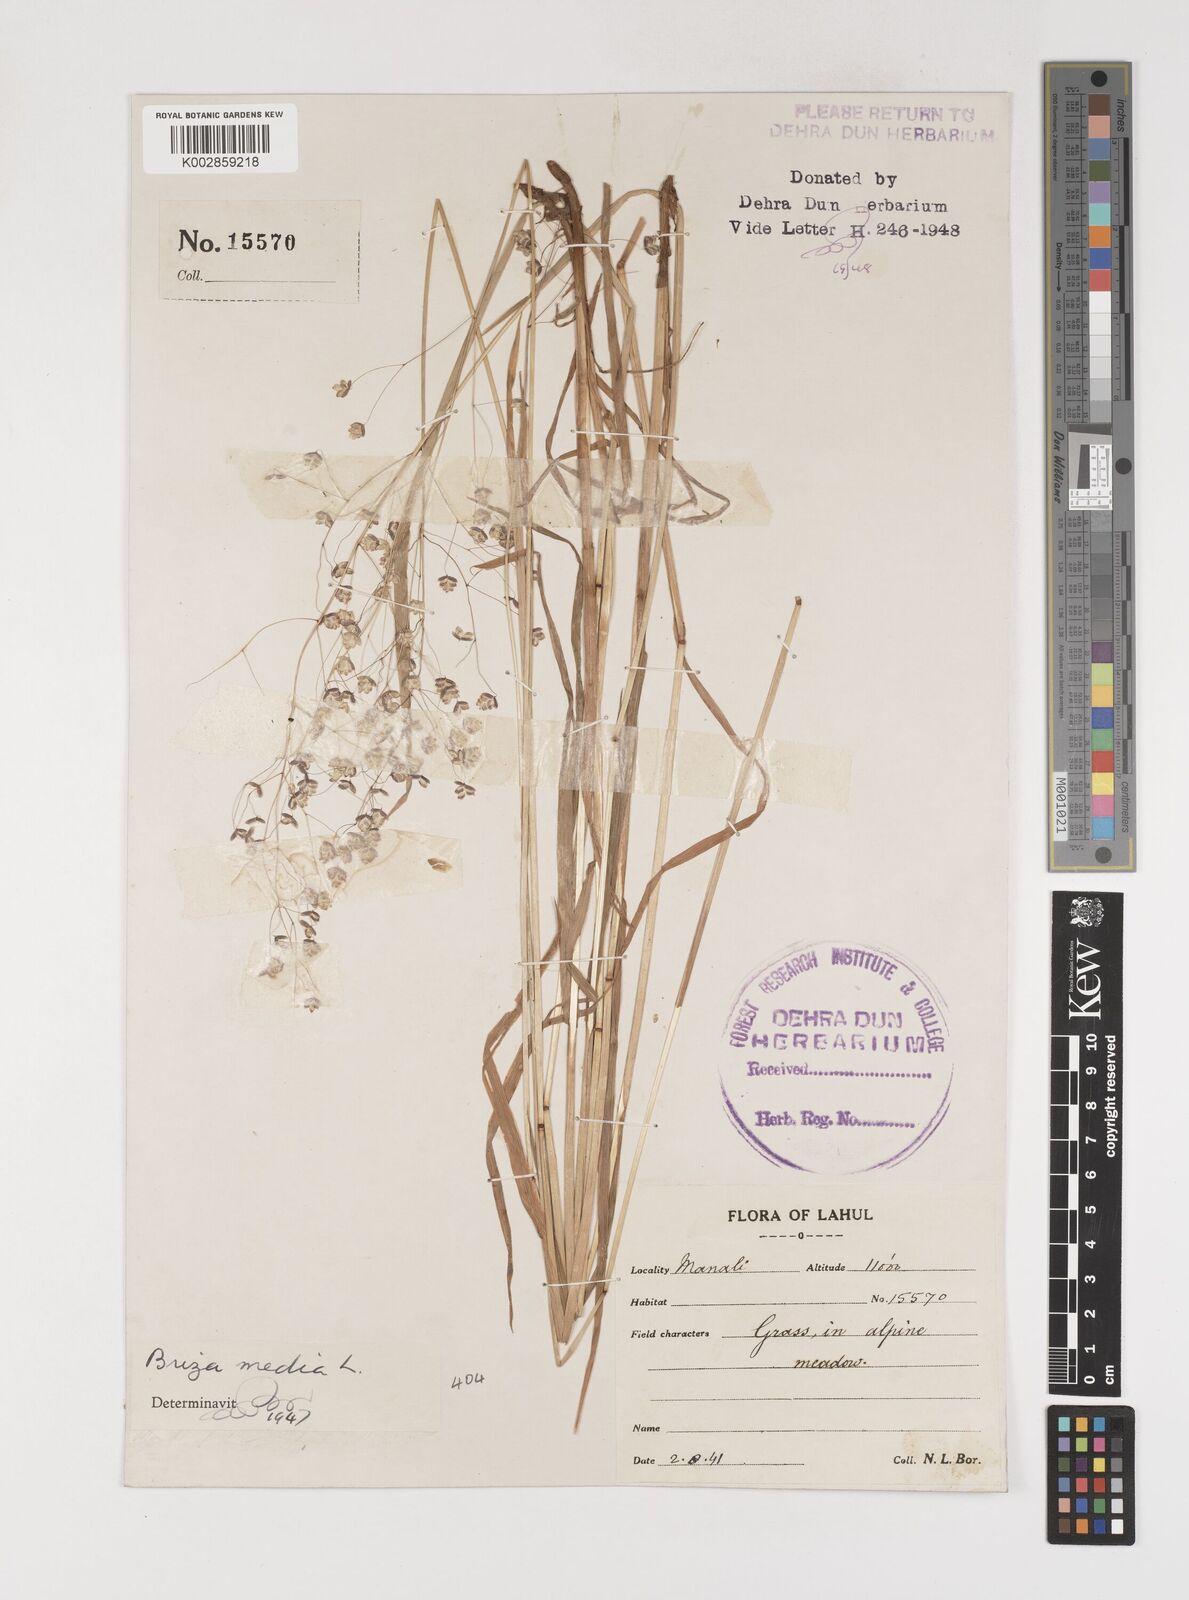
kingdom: Plantae
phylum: Tracheophyta
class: Liliopsida
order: Poales
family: Poaceae
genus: Briza
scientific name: Briza media
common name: Quaking grass
